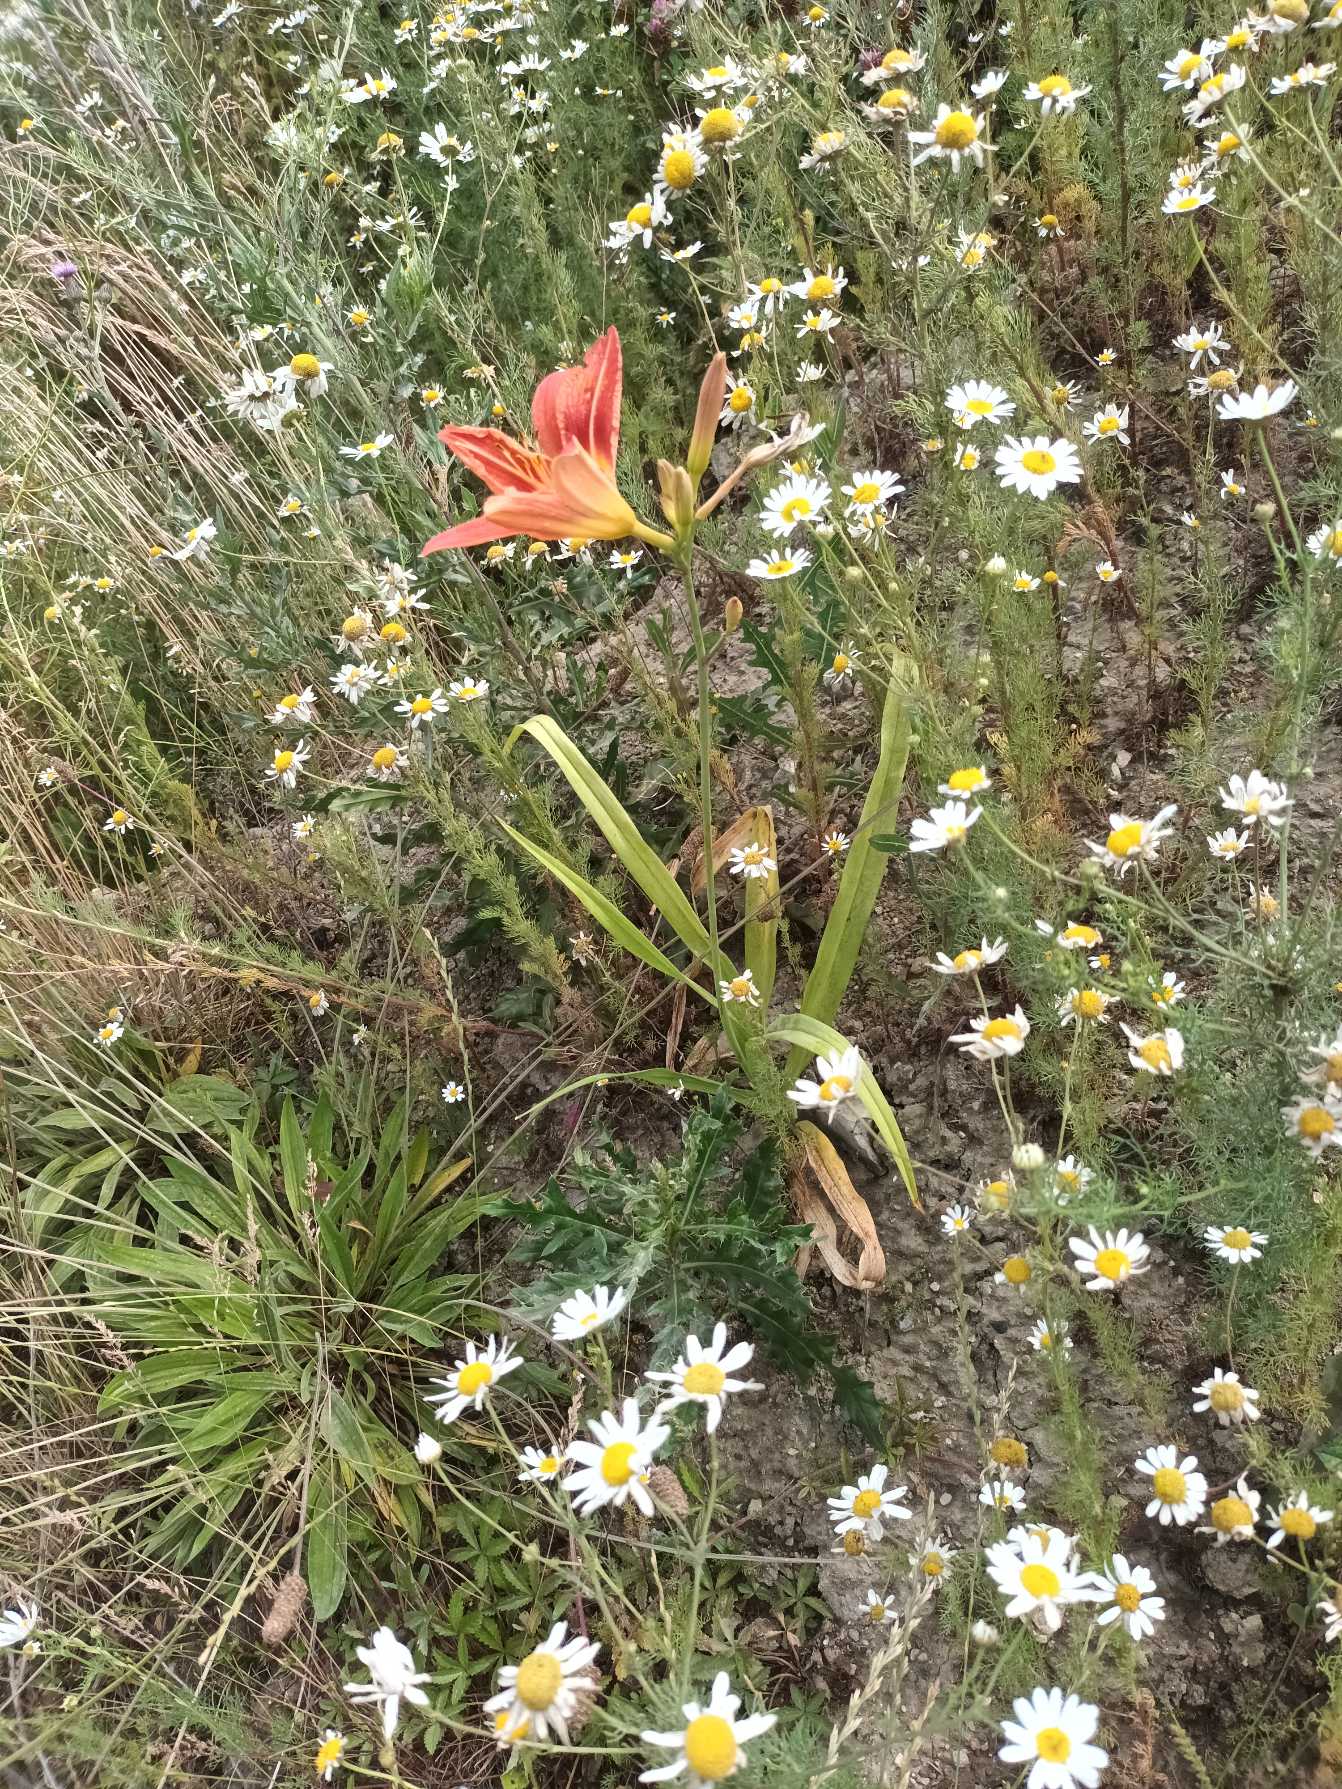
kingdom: Plantae
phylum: Tracheophyta
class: Liliopsida
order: Asparagales
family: Asphodelaceae
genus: Hemerocallis
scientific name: Hemerocallis fulva
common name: Rødgul daglilje
